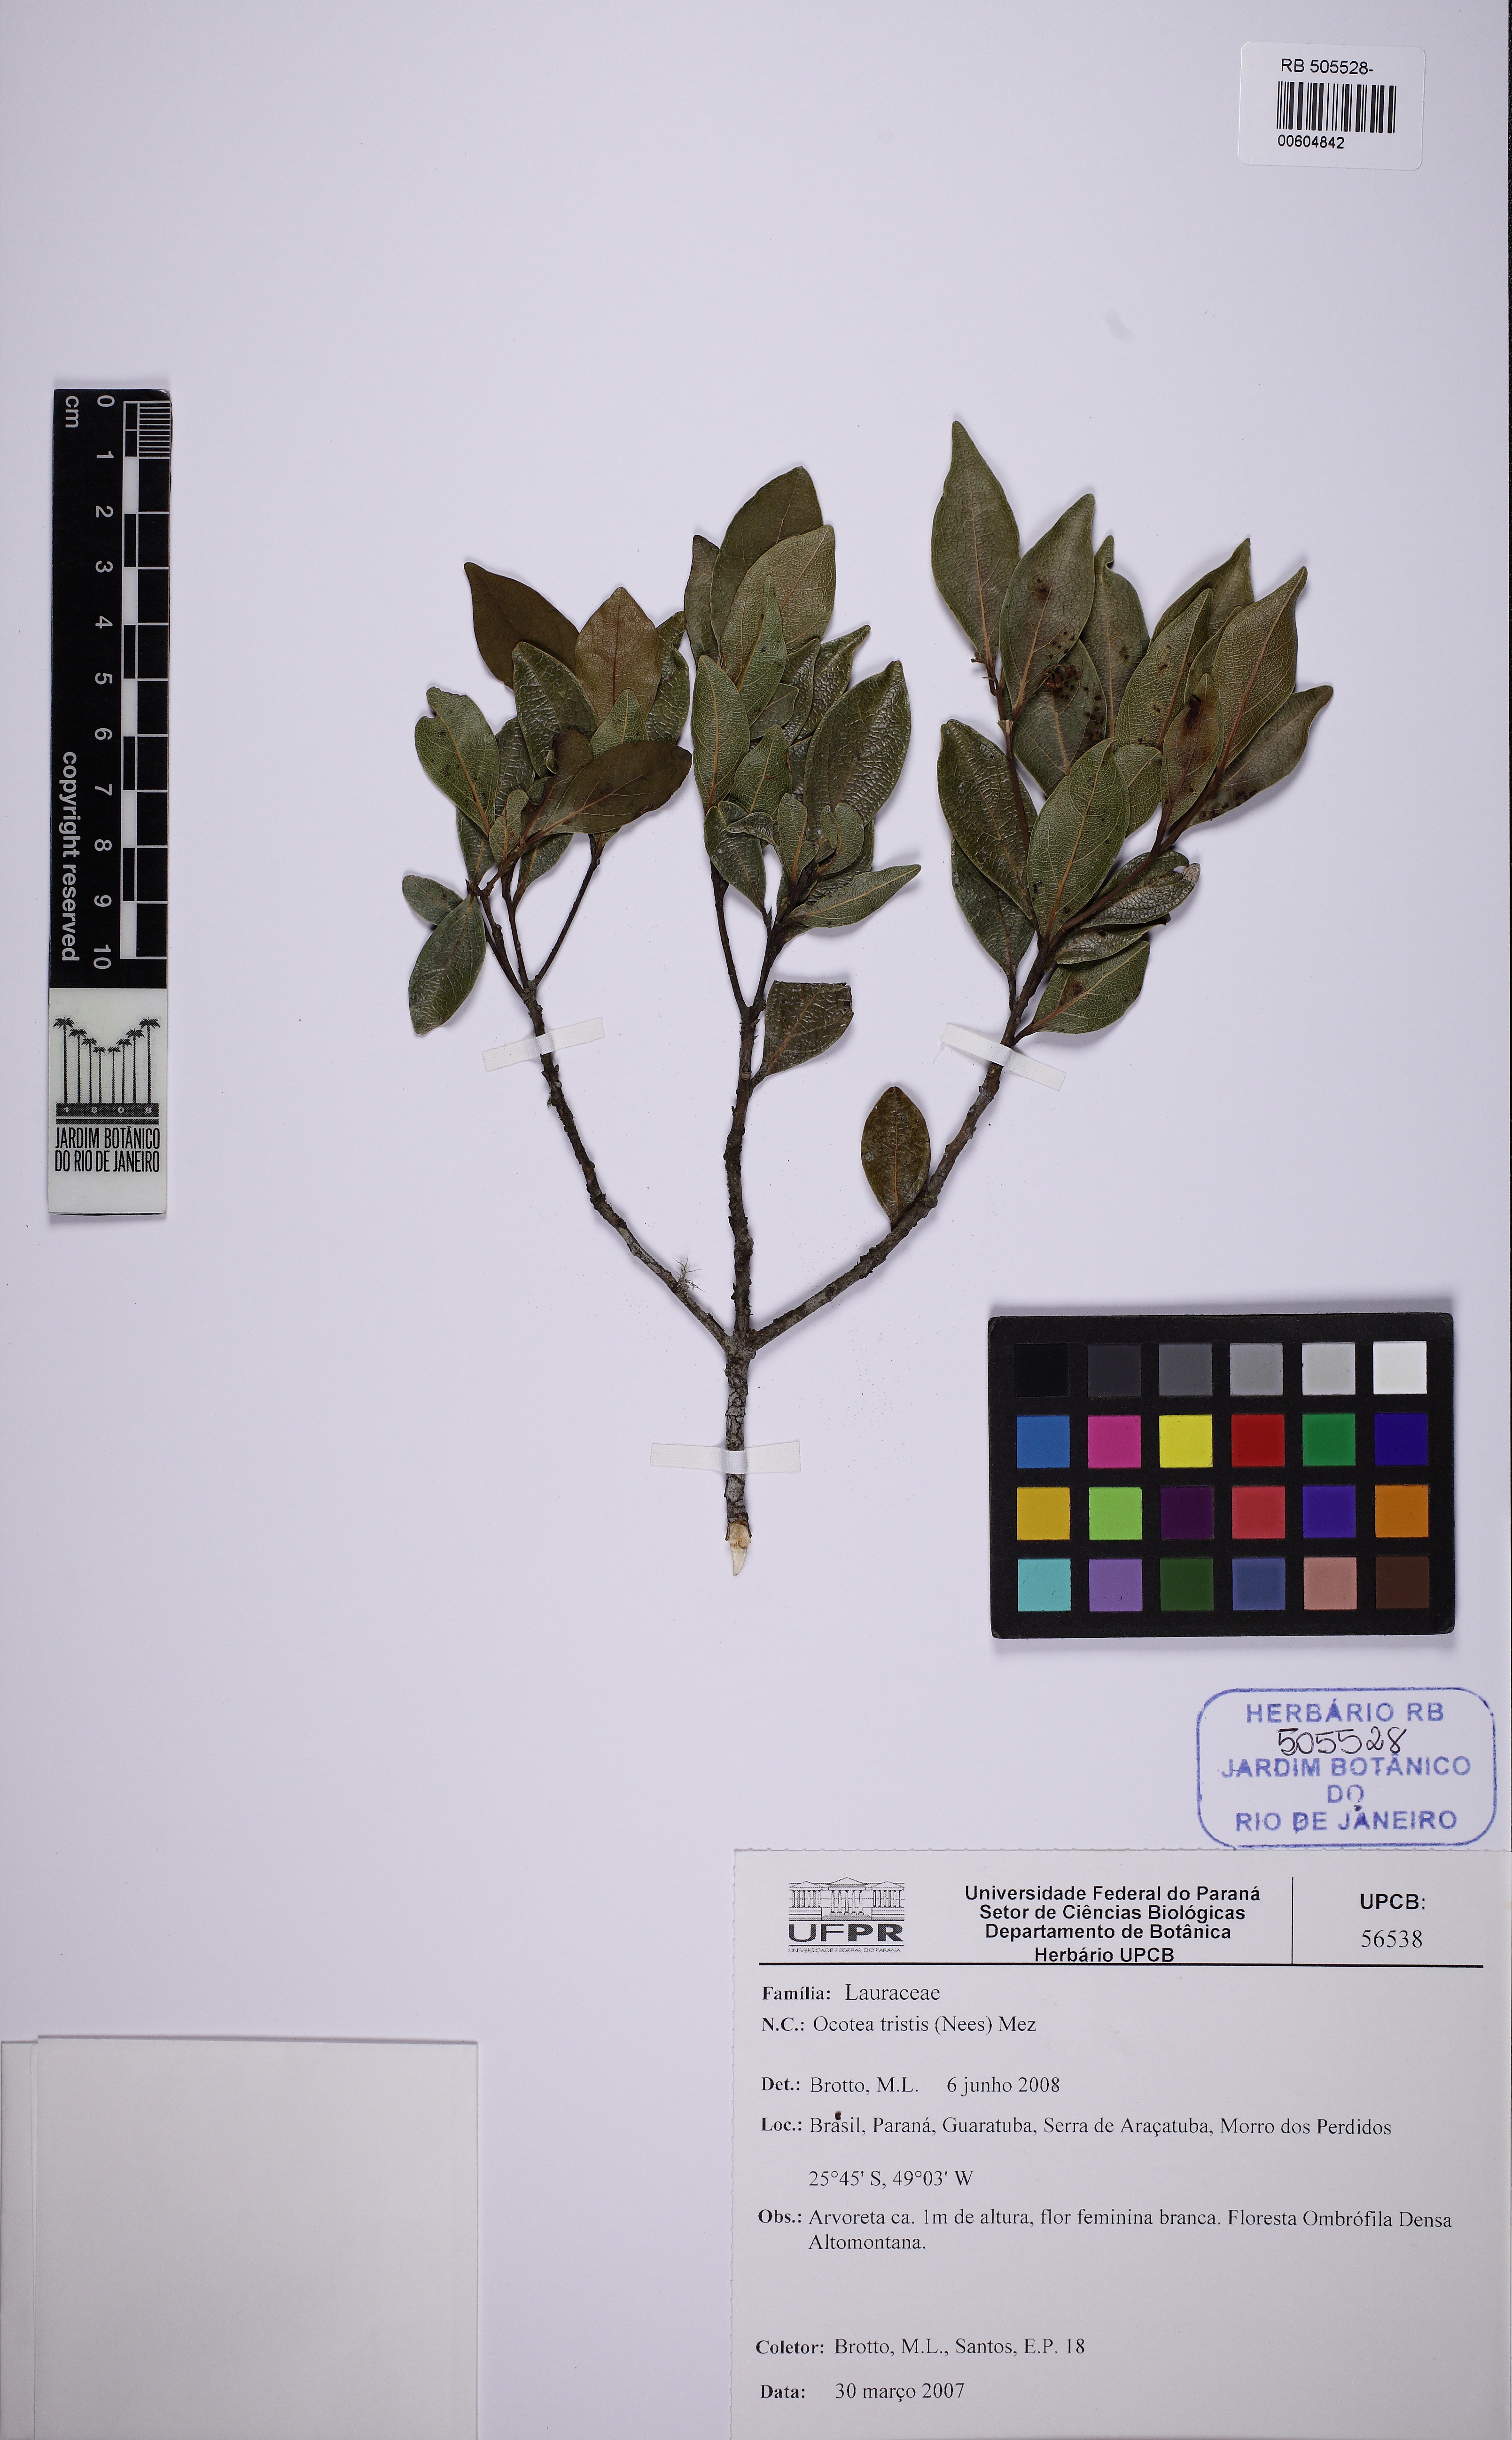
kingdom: Plantae
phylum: Tracheophyta
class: Magnoliopsida
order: Laurales
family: Lauraceae
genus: Mespilodaphne
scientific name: Mespilodaphne tristis
